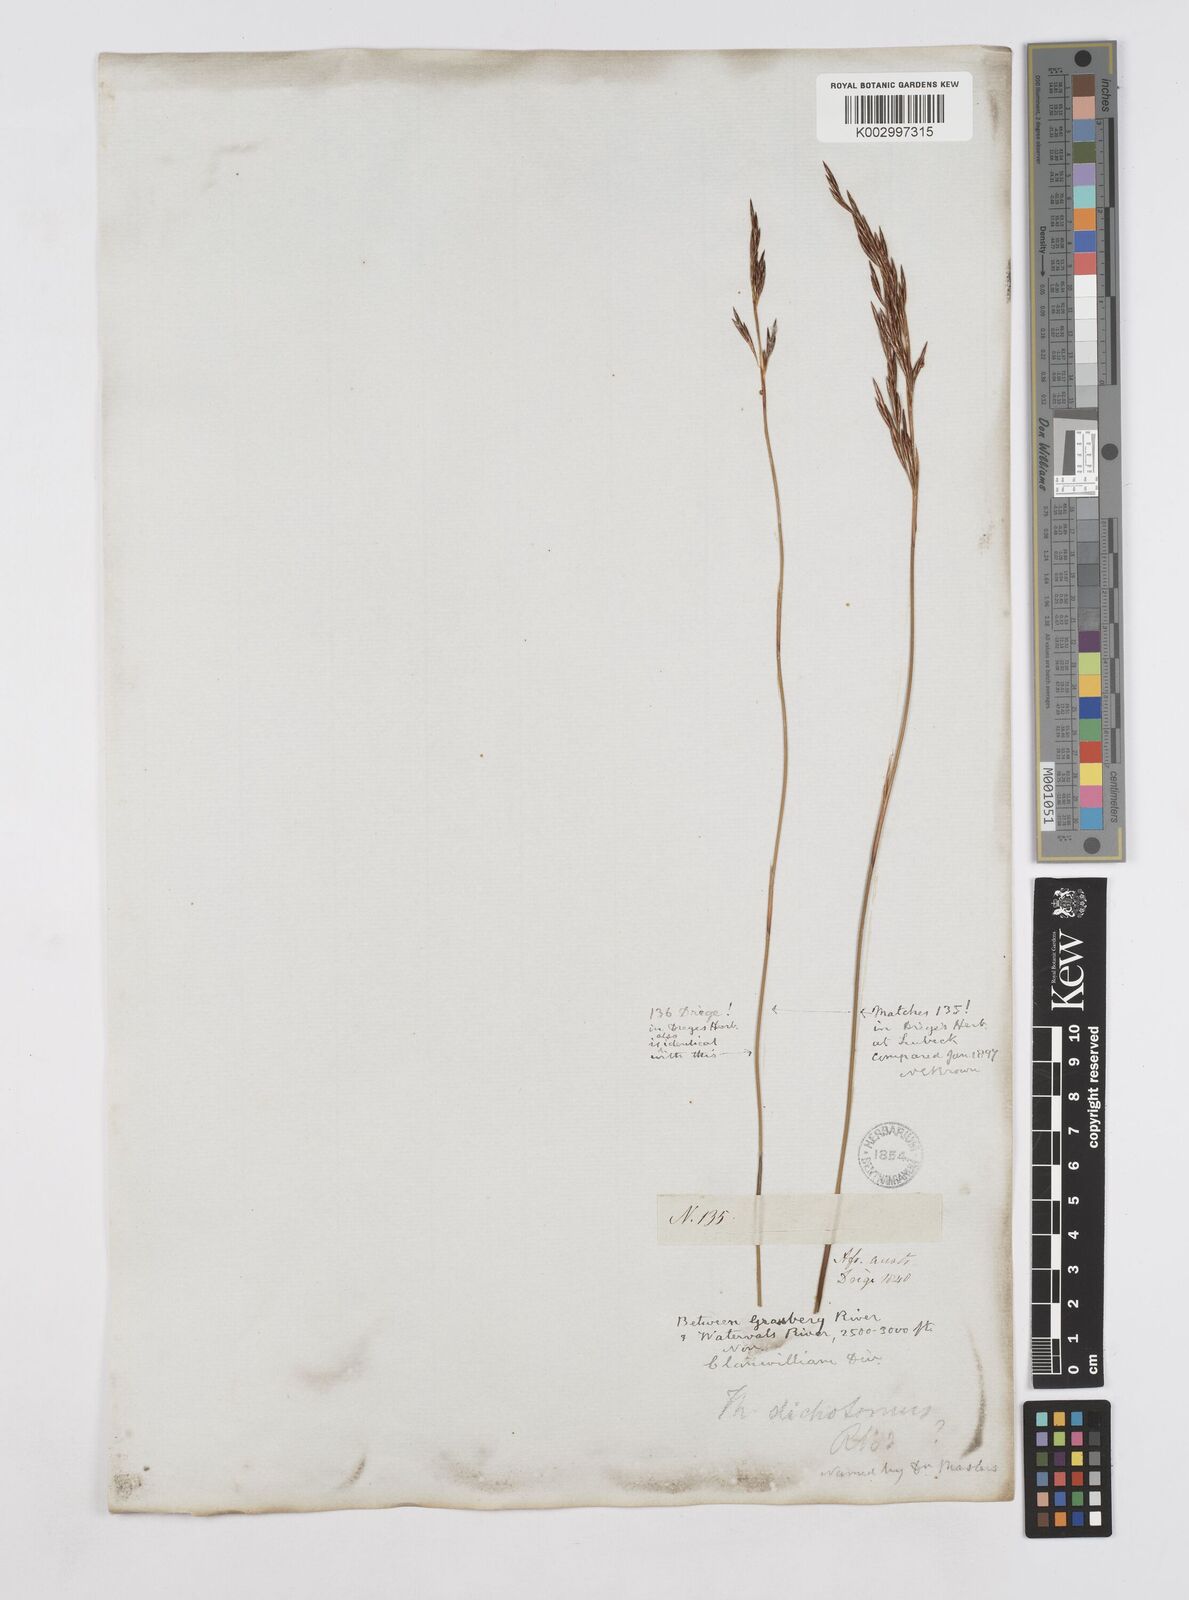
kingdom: Plantae
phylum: Tracheophyta
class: Liliopsida
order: Poales
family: Restionaceae
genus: Thamnochortus
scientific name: Thamnochortus
